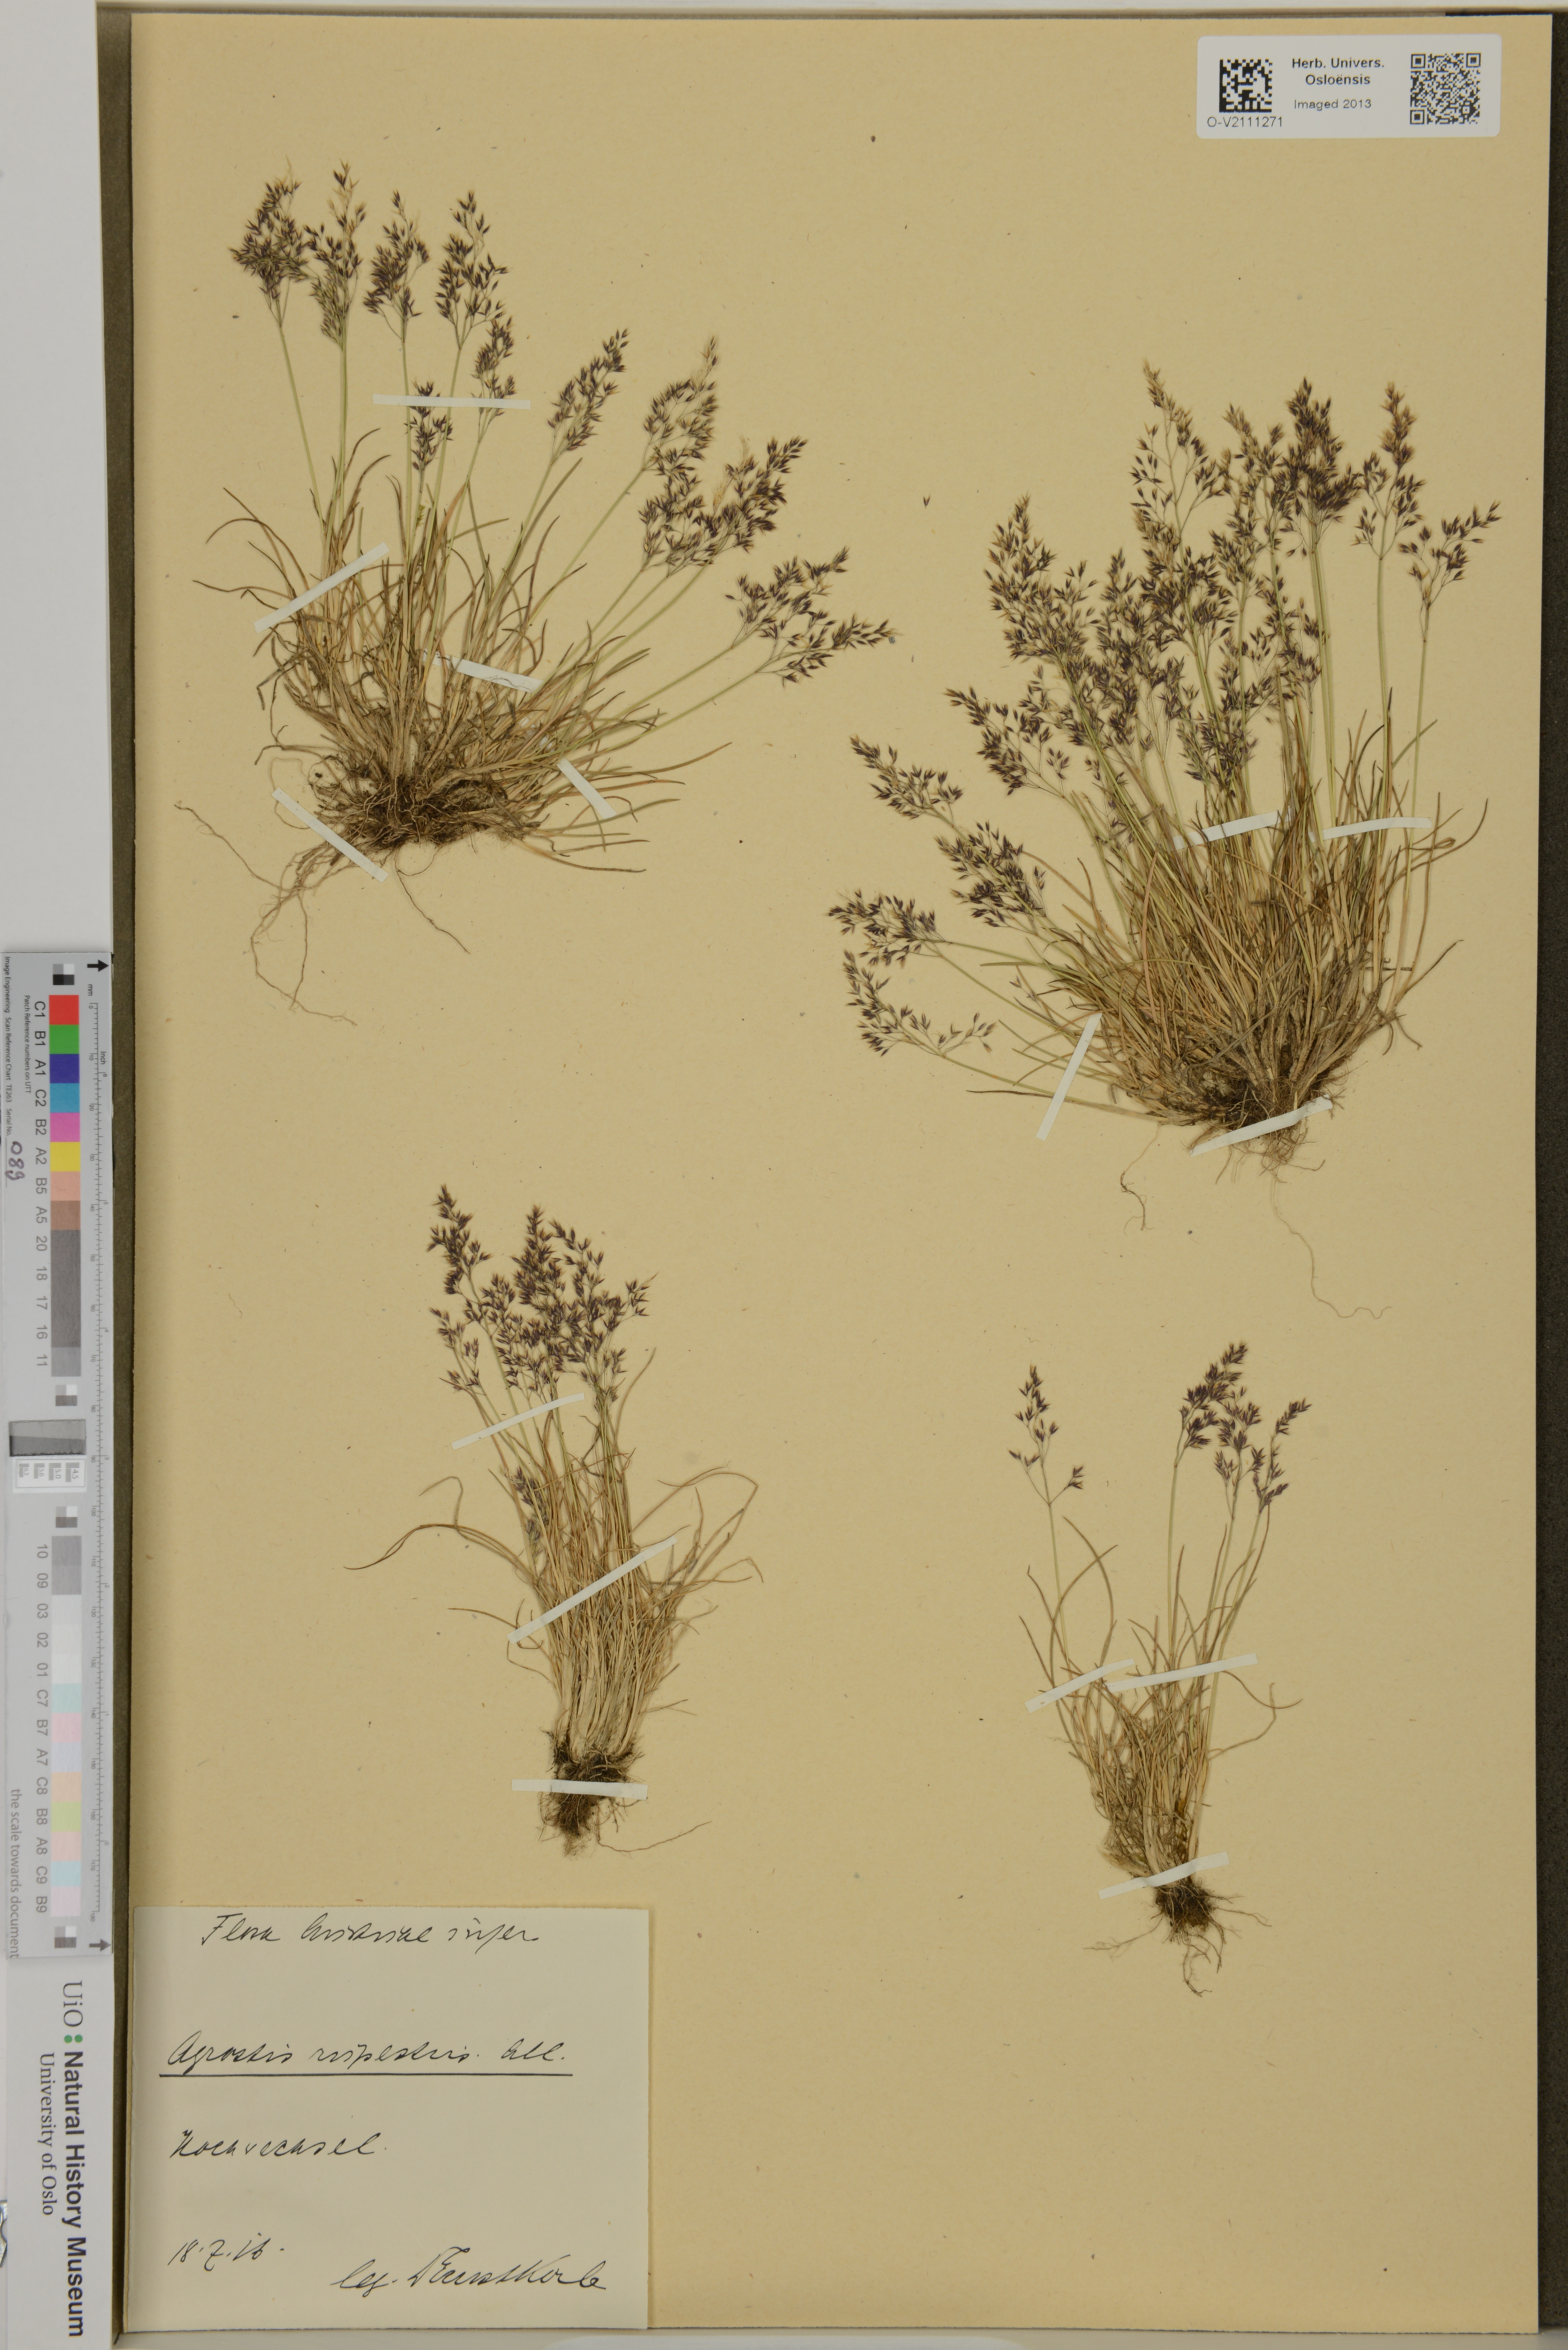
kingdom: Plantae
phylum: Tracheophyta
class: Liliopsida
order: Poales
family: Poaceae
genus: Agrostis
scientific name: Agrostis rupestris
